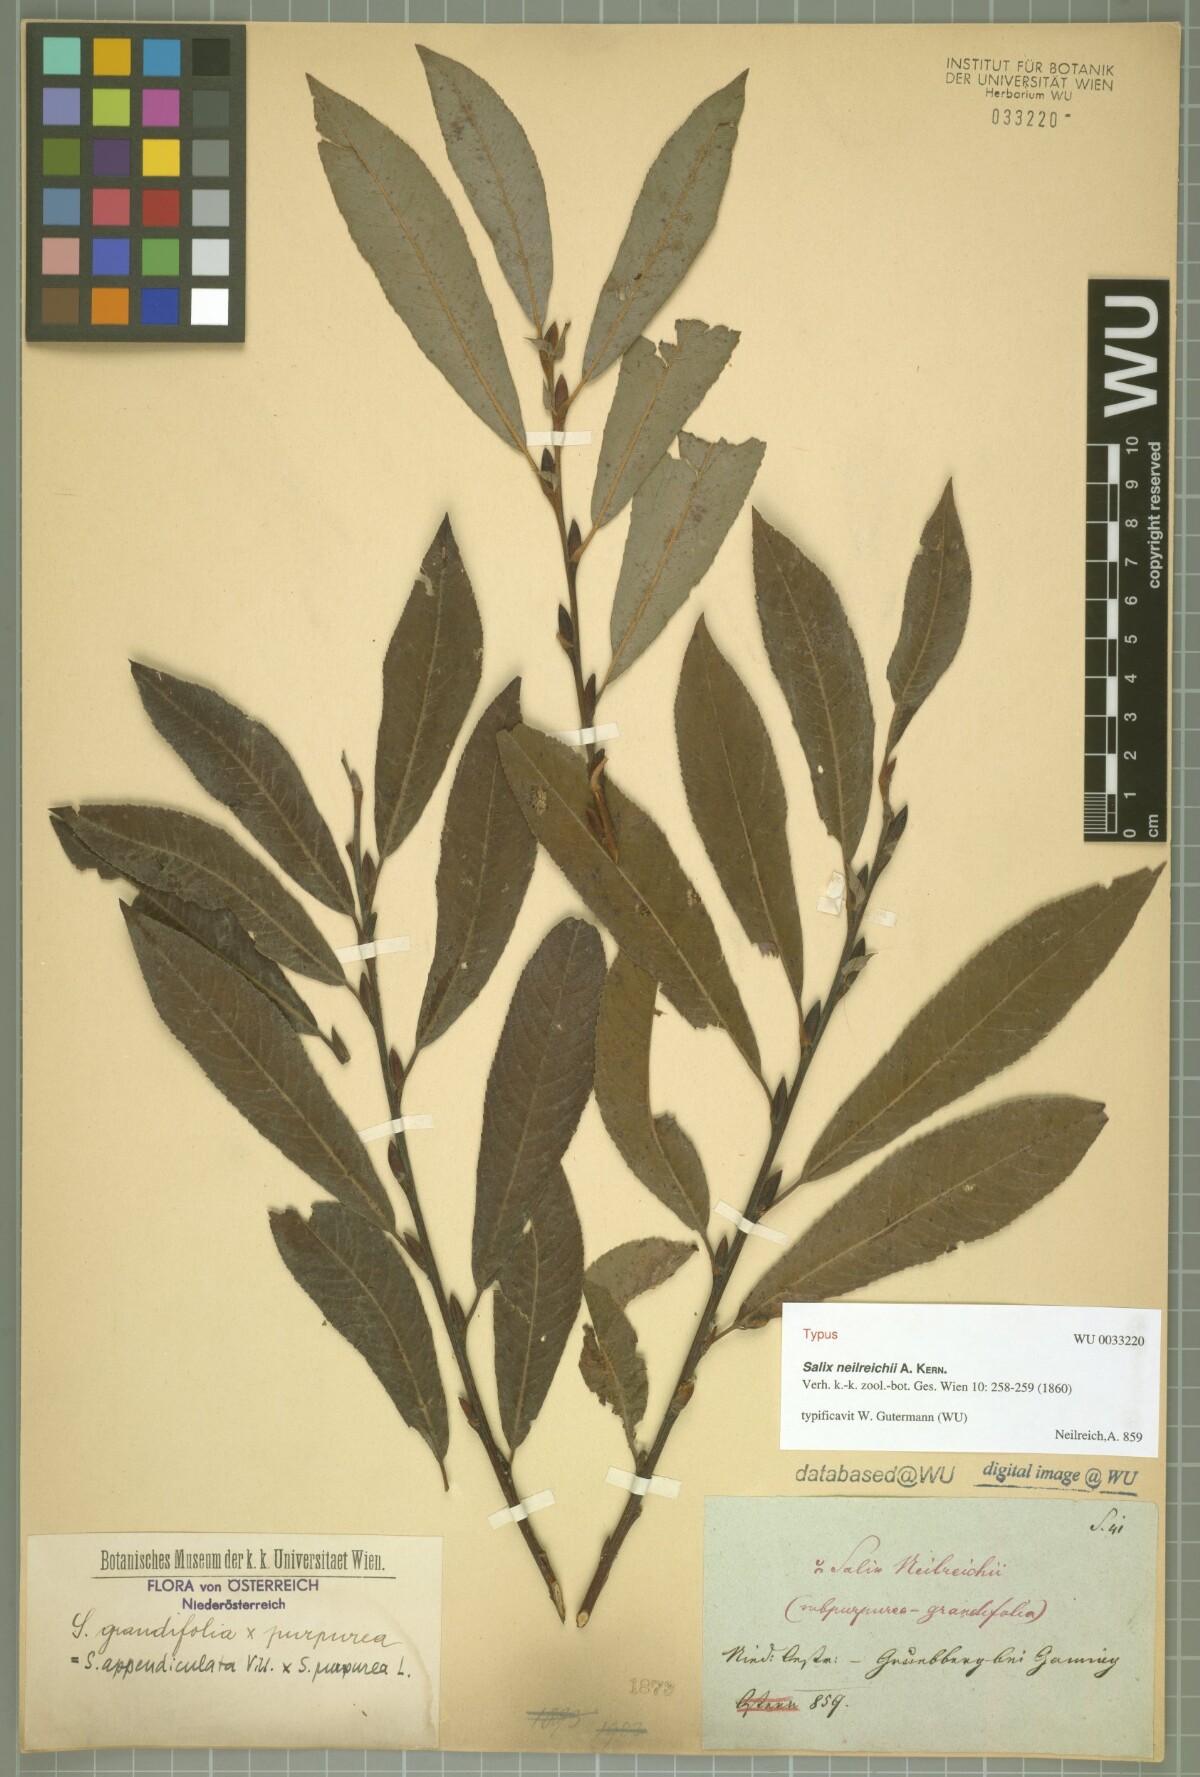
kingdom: Plantae
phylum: Tracheophyta
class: Magnoliopsida
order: Malpighiales
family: Salicaceae
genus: Salix
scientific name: Salix purpurea
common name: Purple willow
